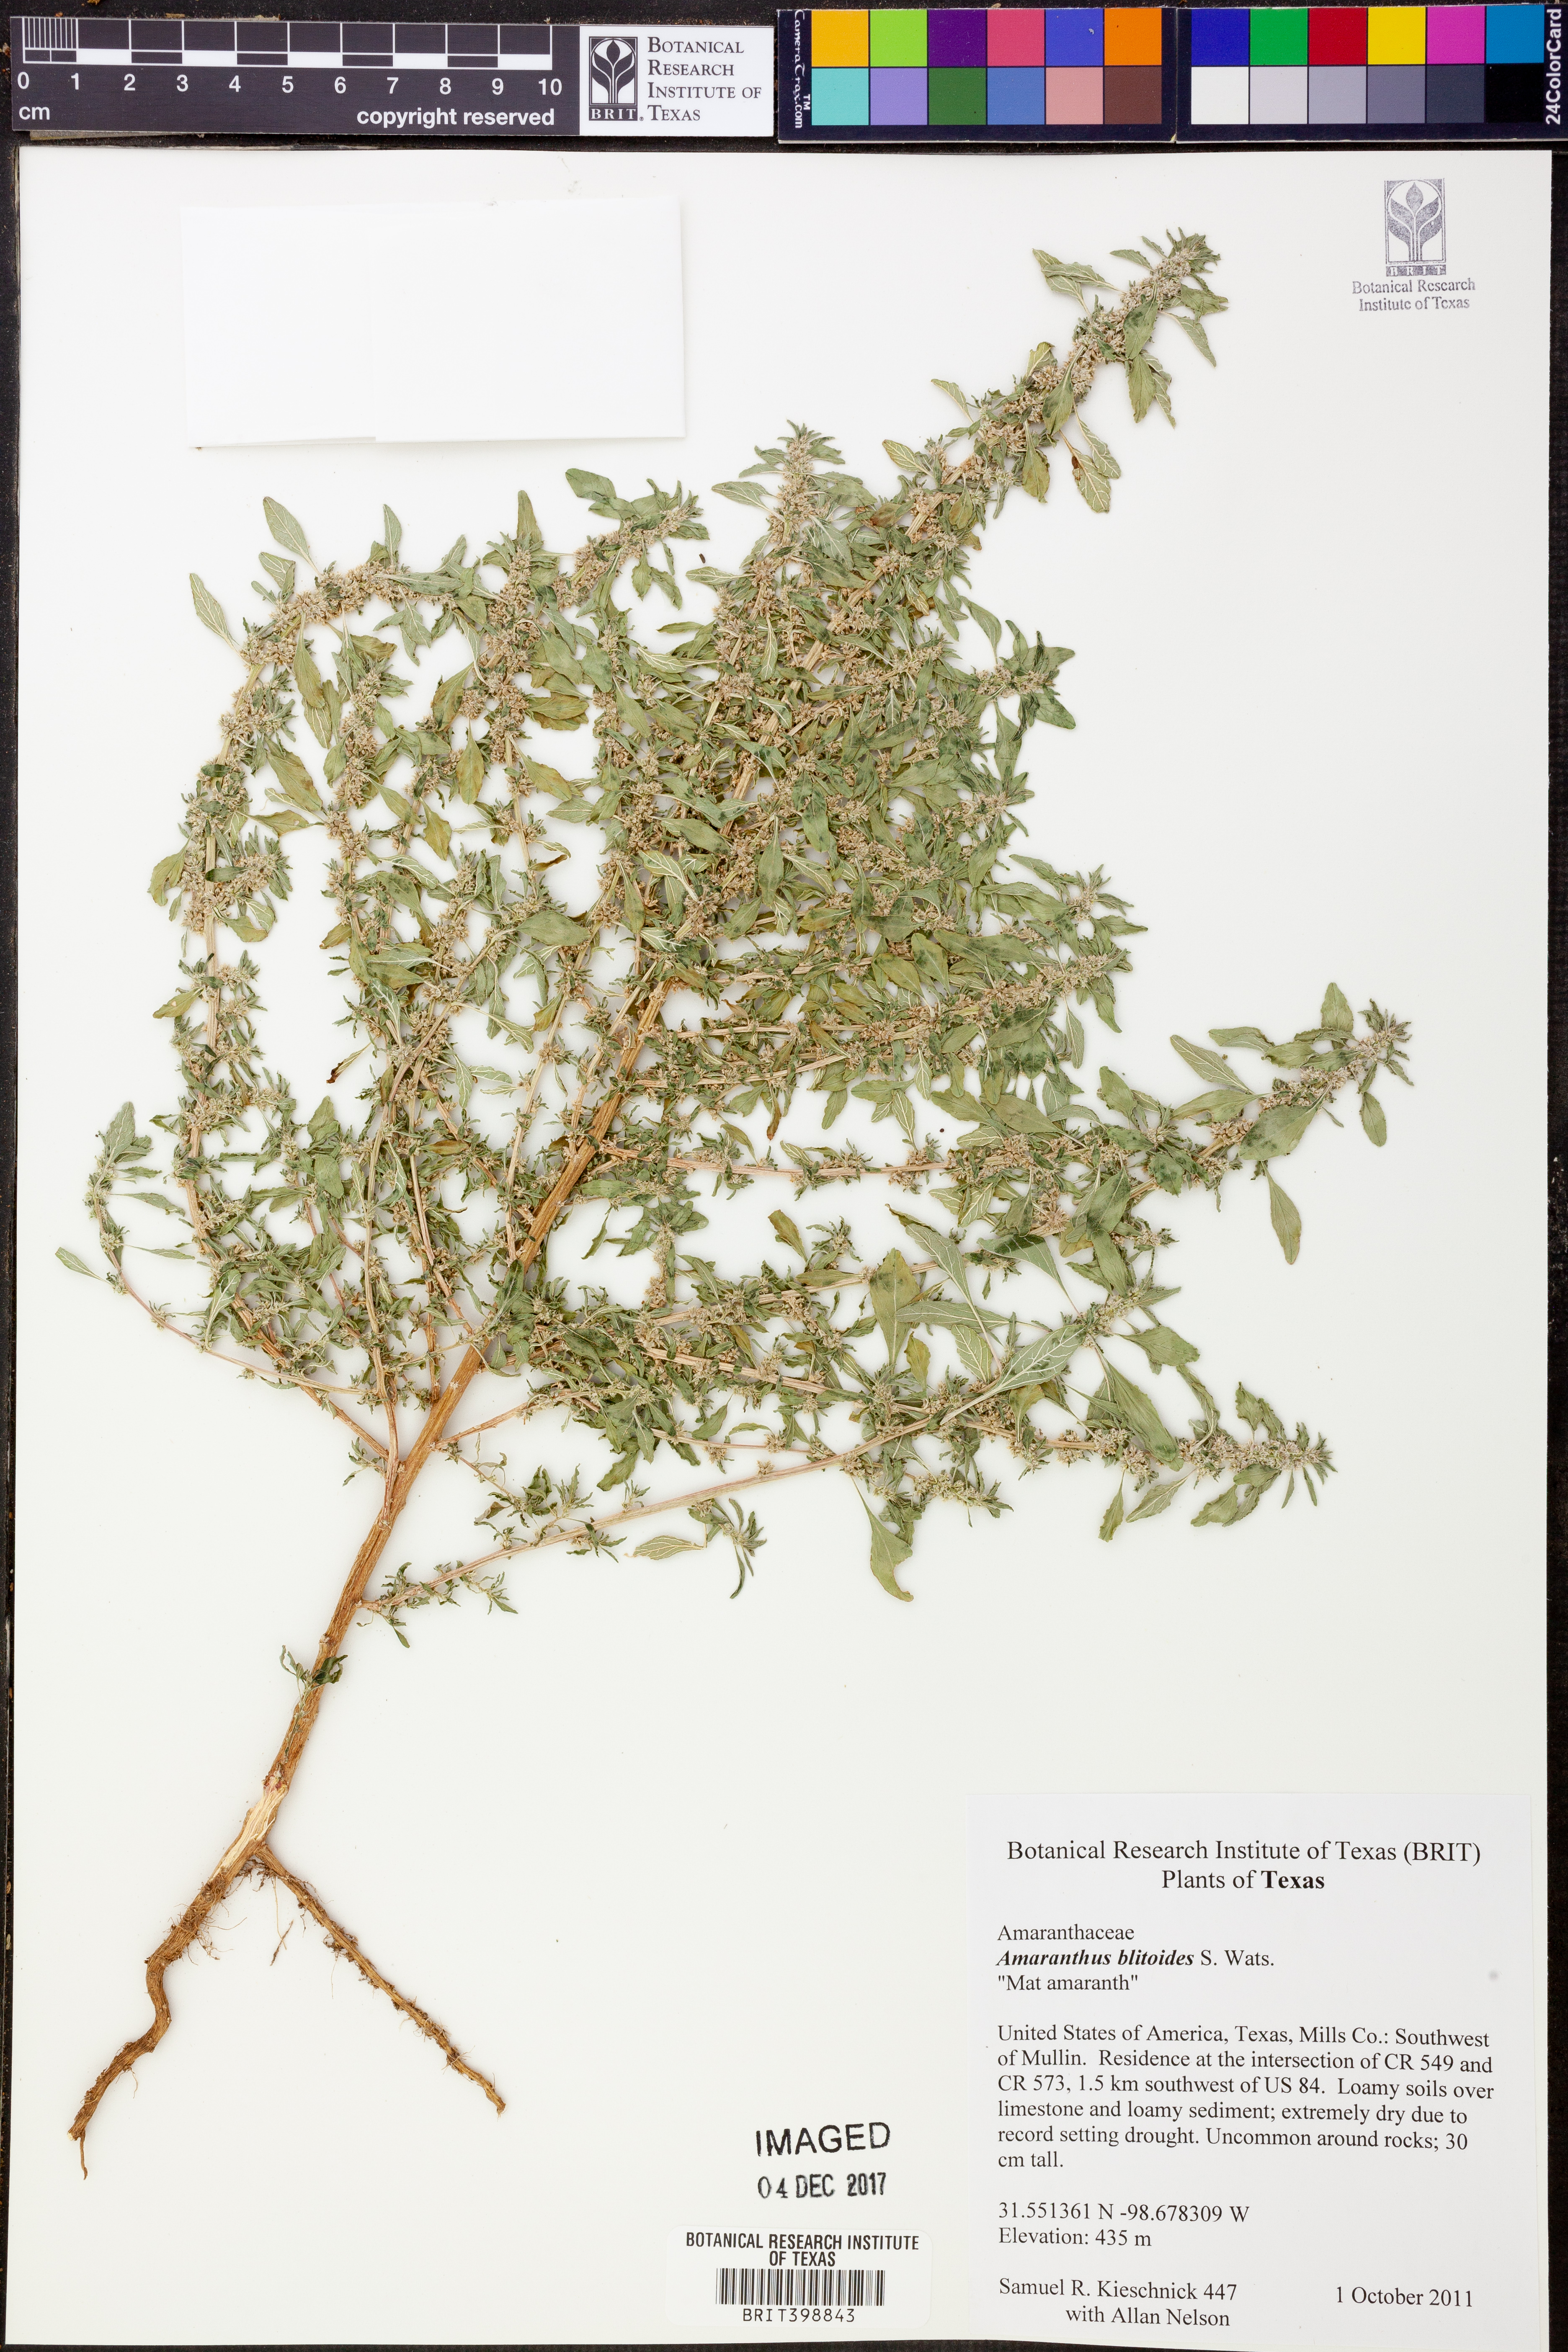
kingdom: Plantae
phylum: Tracheophyta
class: Magnoliopsida
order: Caryophyllales
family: Amaranthaceae
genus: Amaranthus
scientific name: Amaranthus blitoides
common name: Prostrate pigweed
